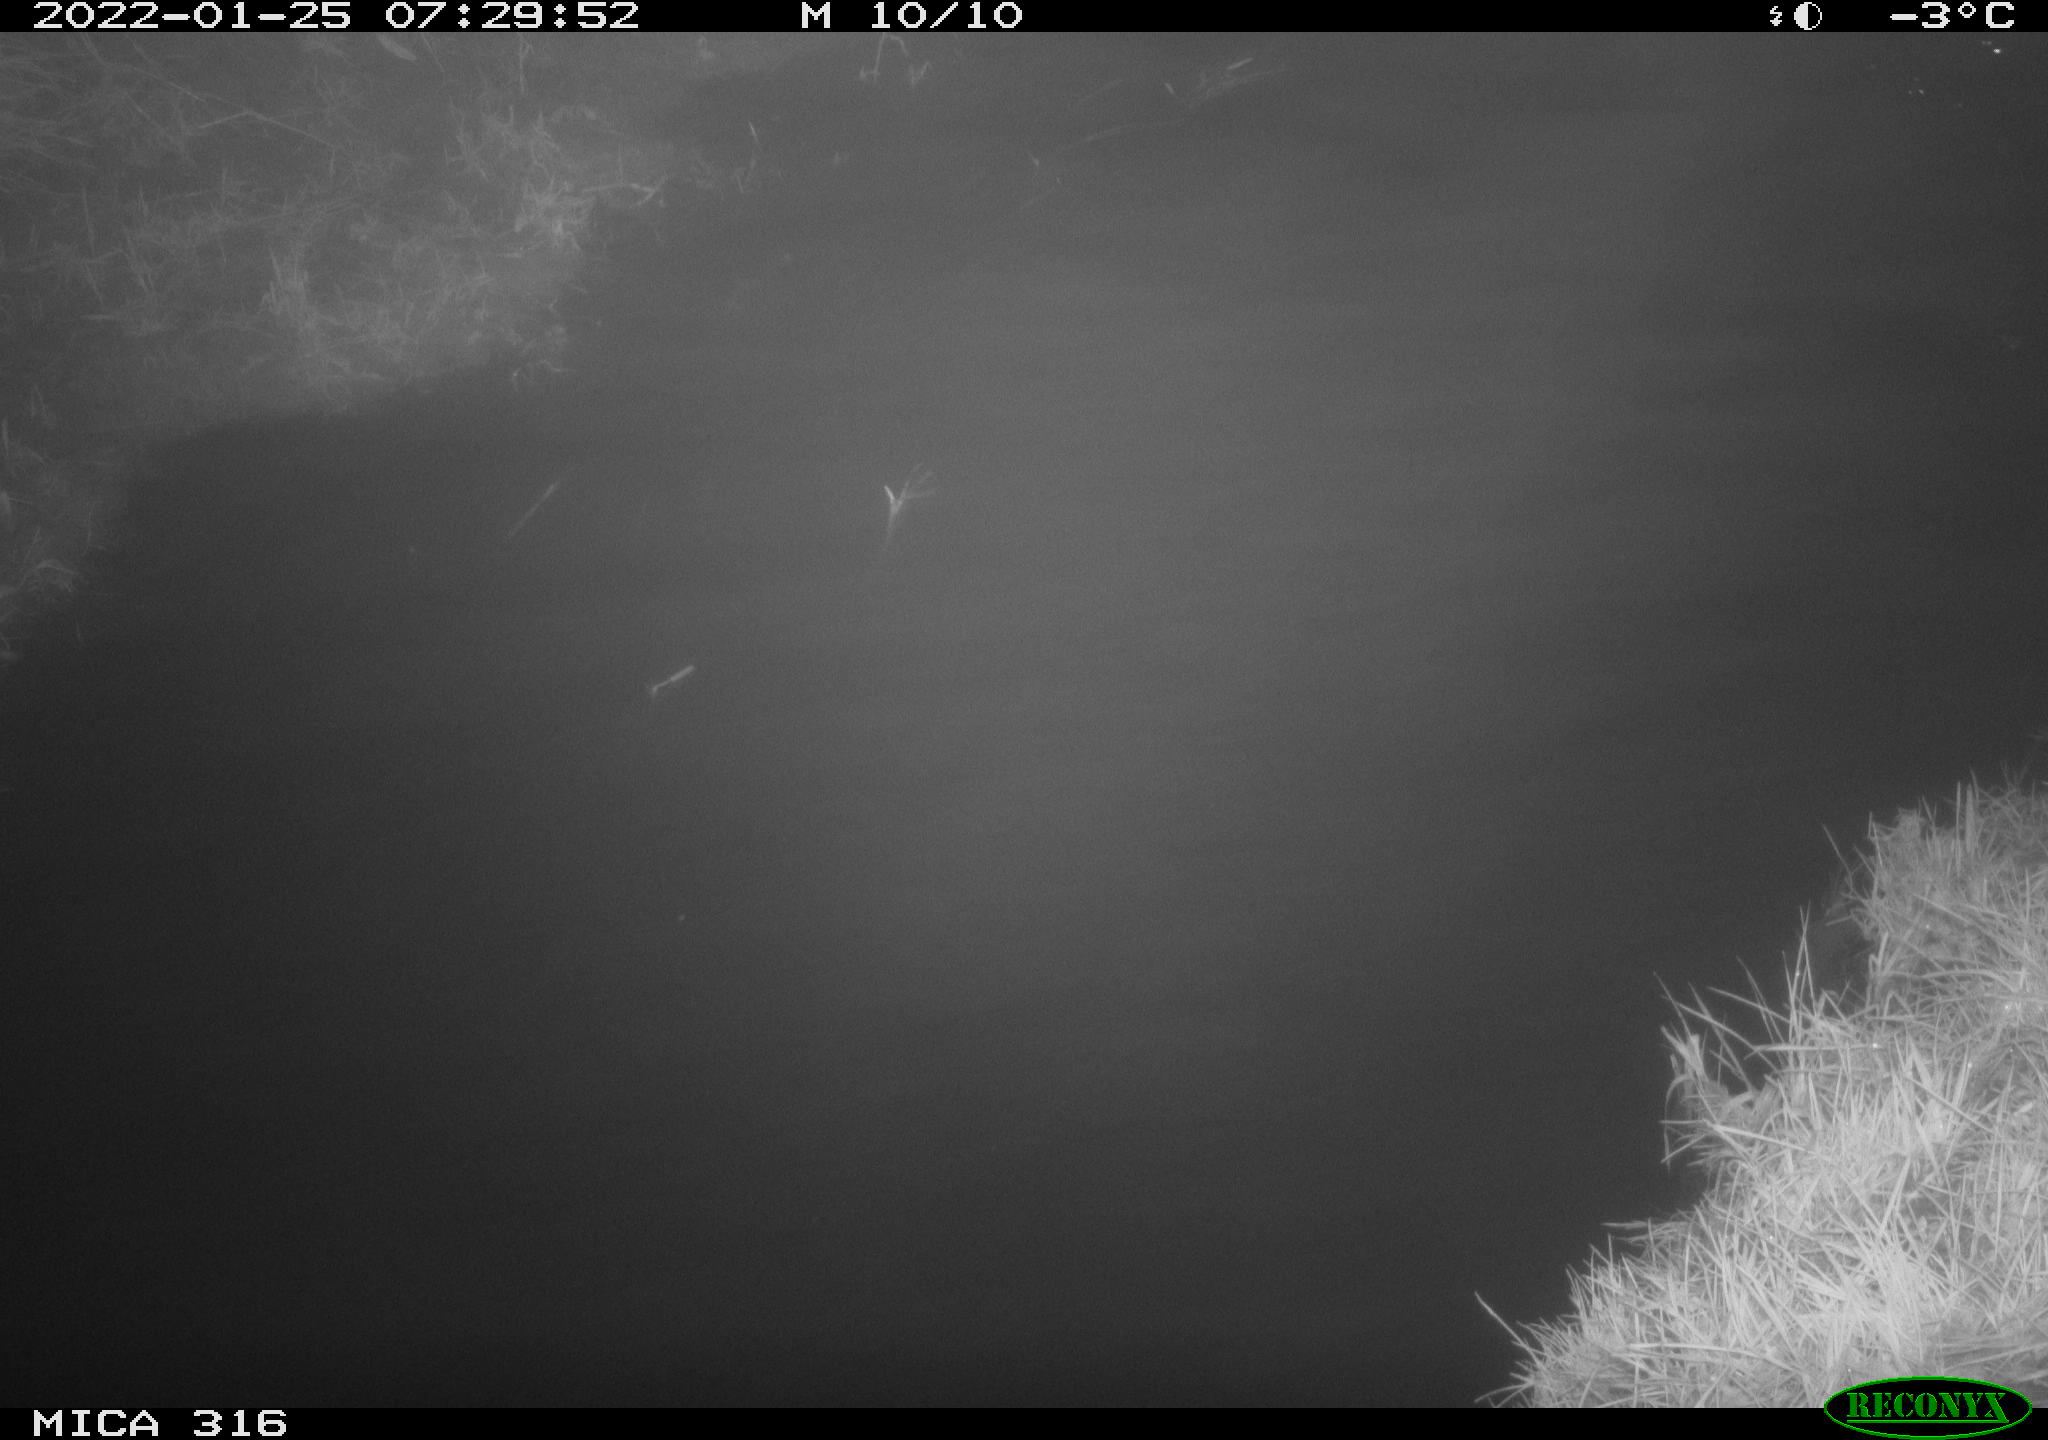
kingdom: Animalia
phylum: Chordata
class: Aves
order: Anseriformes
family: Anatidae
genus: Anas
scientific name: Anas platyrhynchos
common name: Mallard
